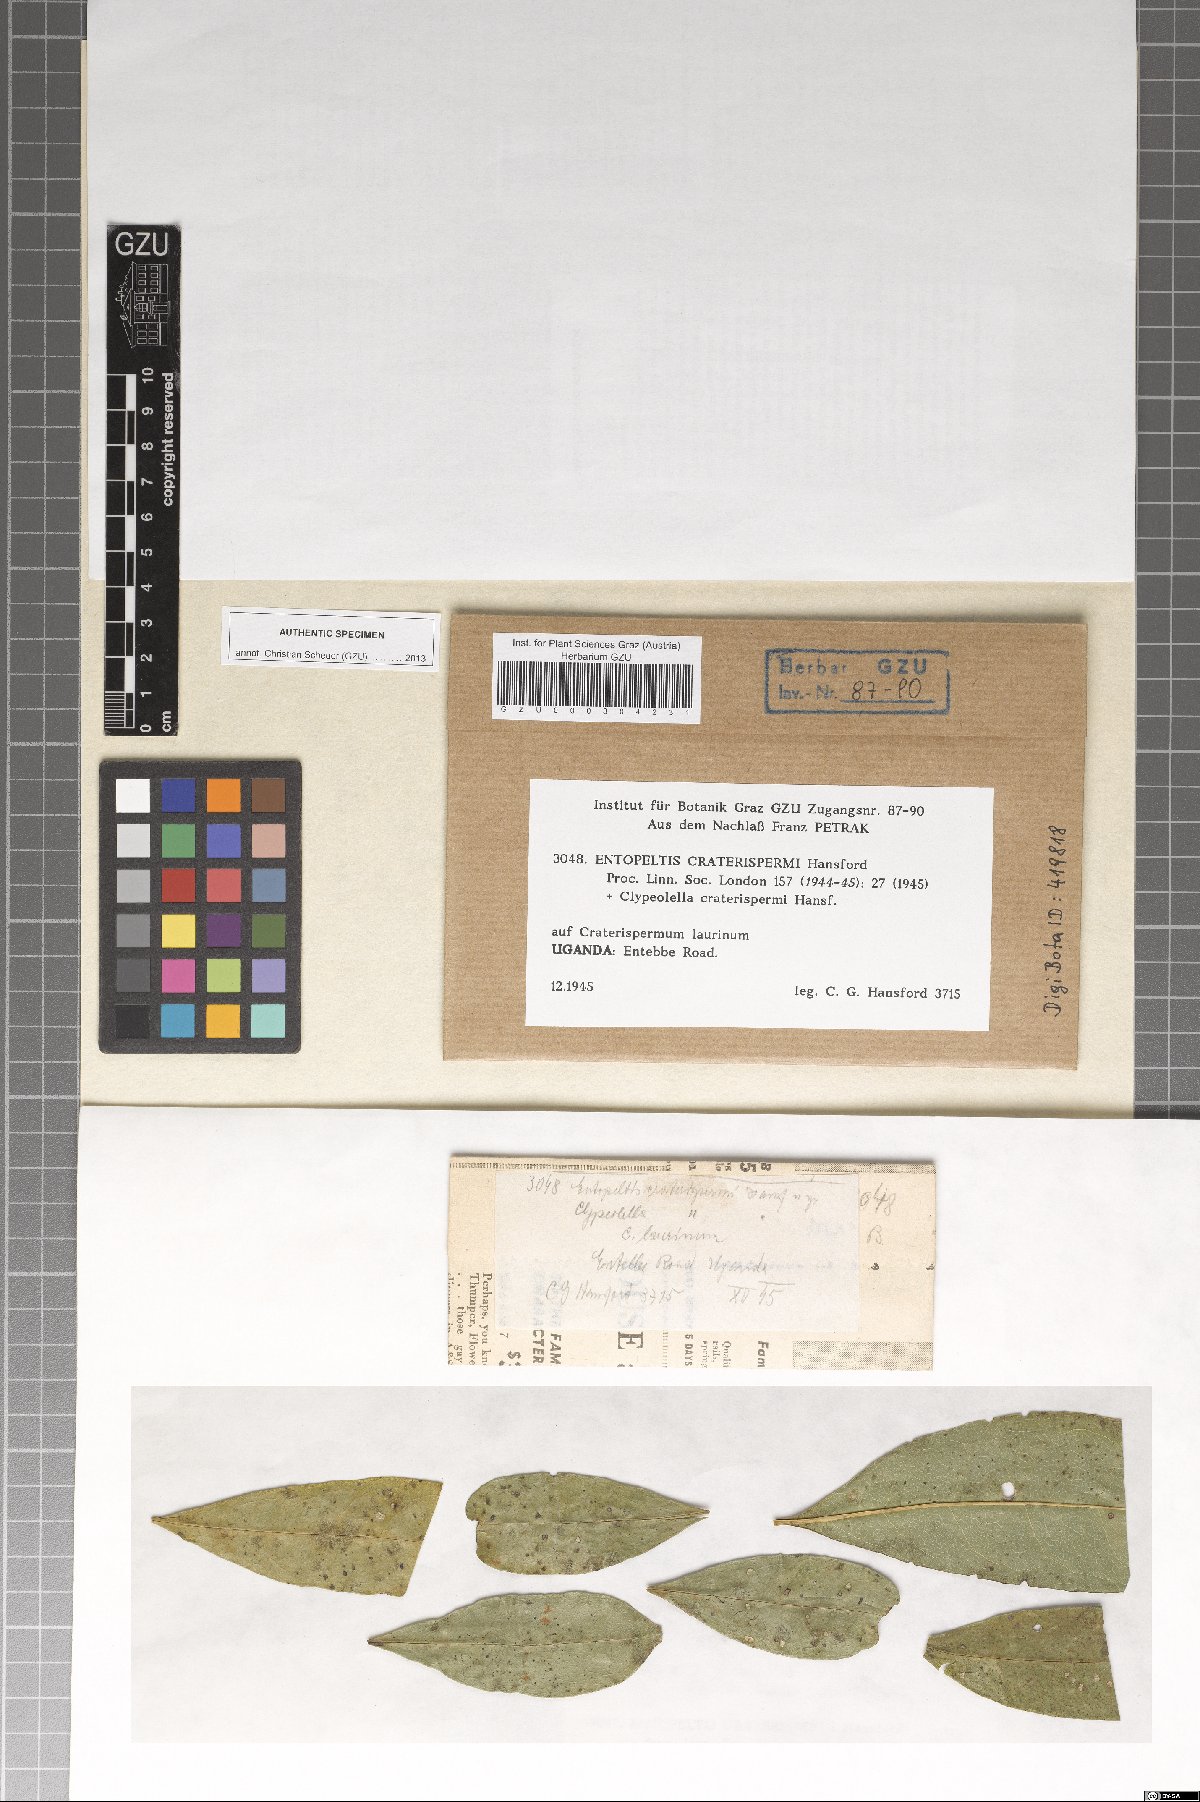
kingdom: Fungi
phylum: Ascomycota
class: Dothideomycetes
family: Vizellaceae
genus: Entopeltis
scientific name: Entopeltis craterispermi
